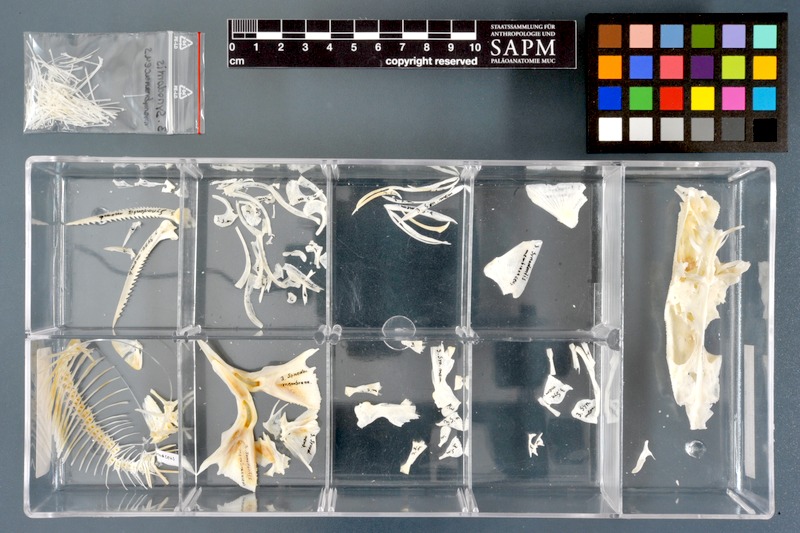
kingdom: Animalia
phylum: Chordata
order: Siluriformes
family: Mochokidae
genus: Synodontis
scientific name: Synodontis membranaceus
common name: Catfish
